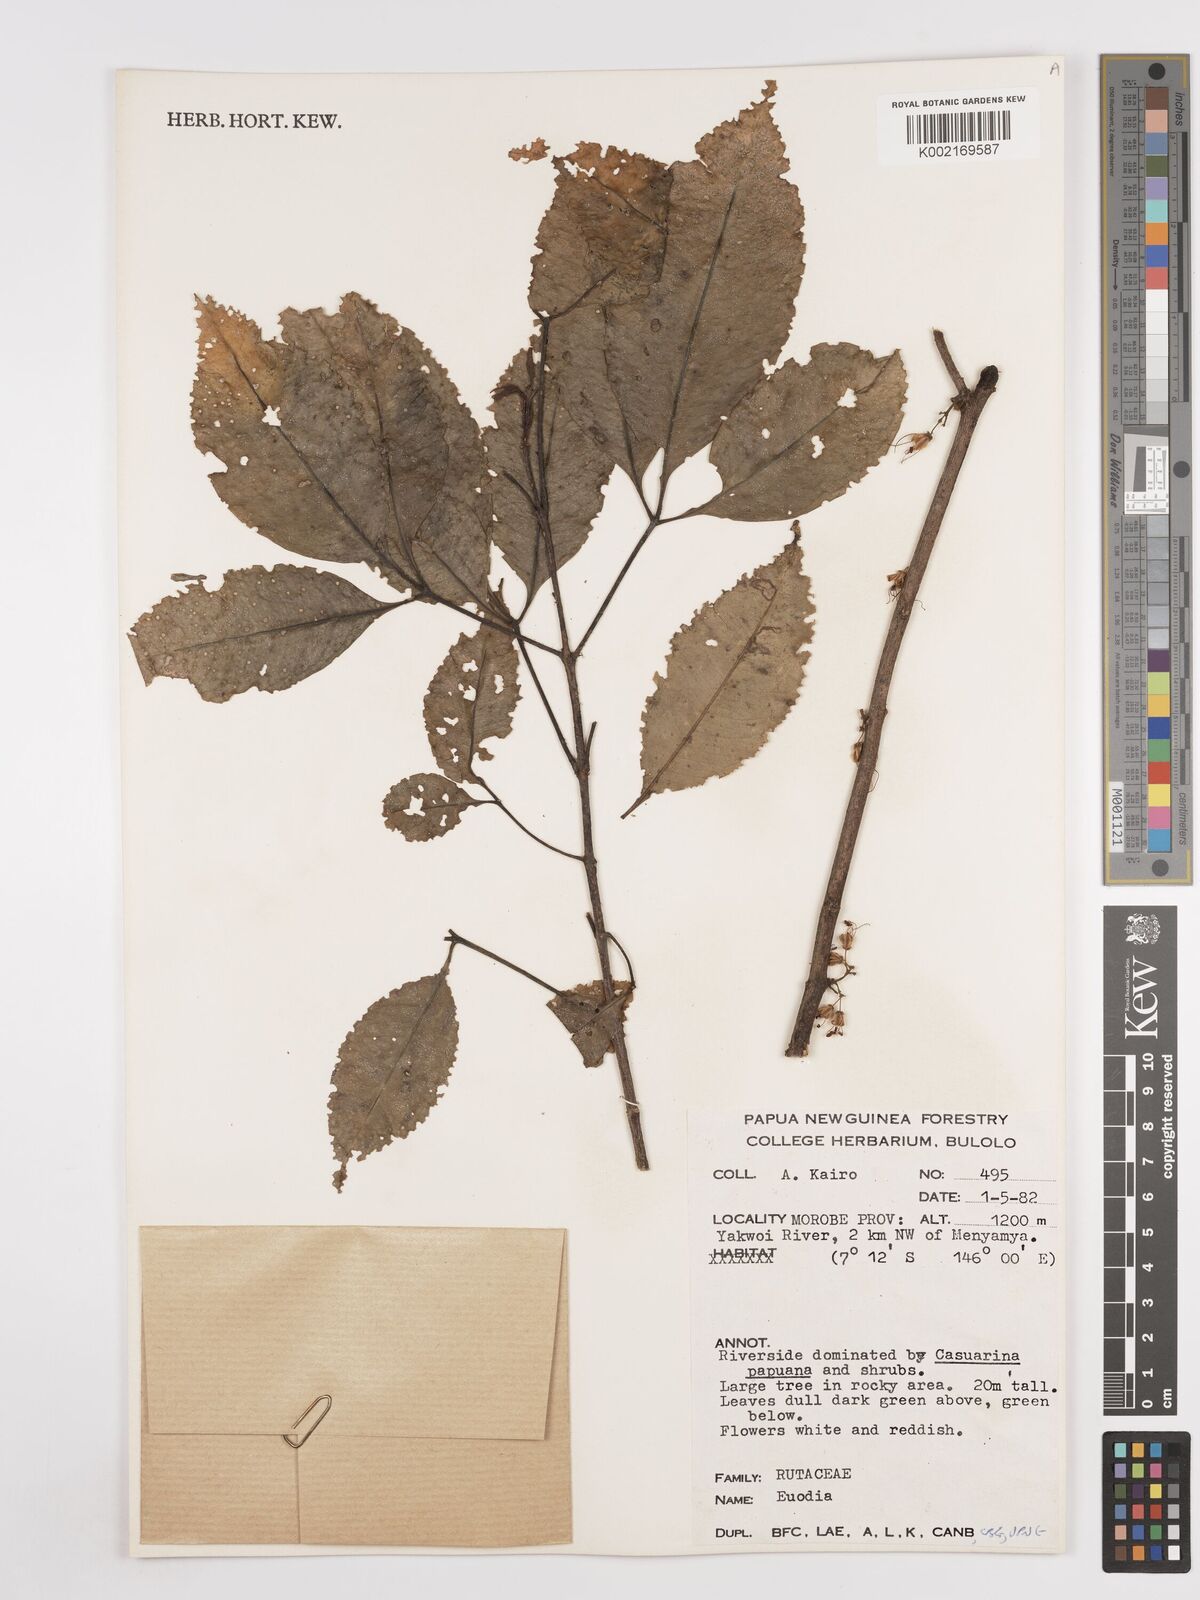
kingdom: Plantae
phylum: Tracheophyta
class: Magnoliopsida
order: Sapindales
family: Rutaceae
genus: Euodia
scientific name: Euodia
